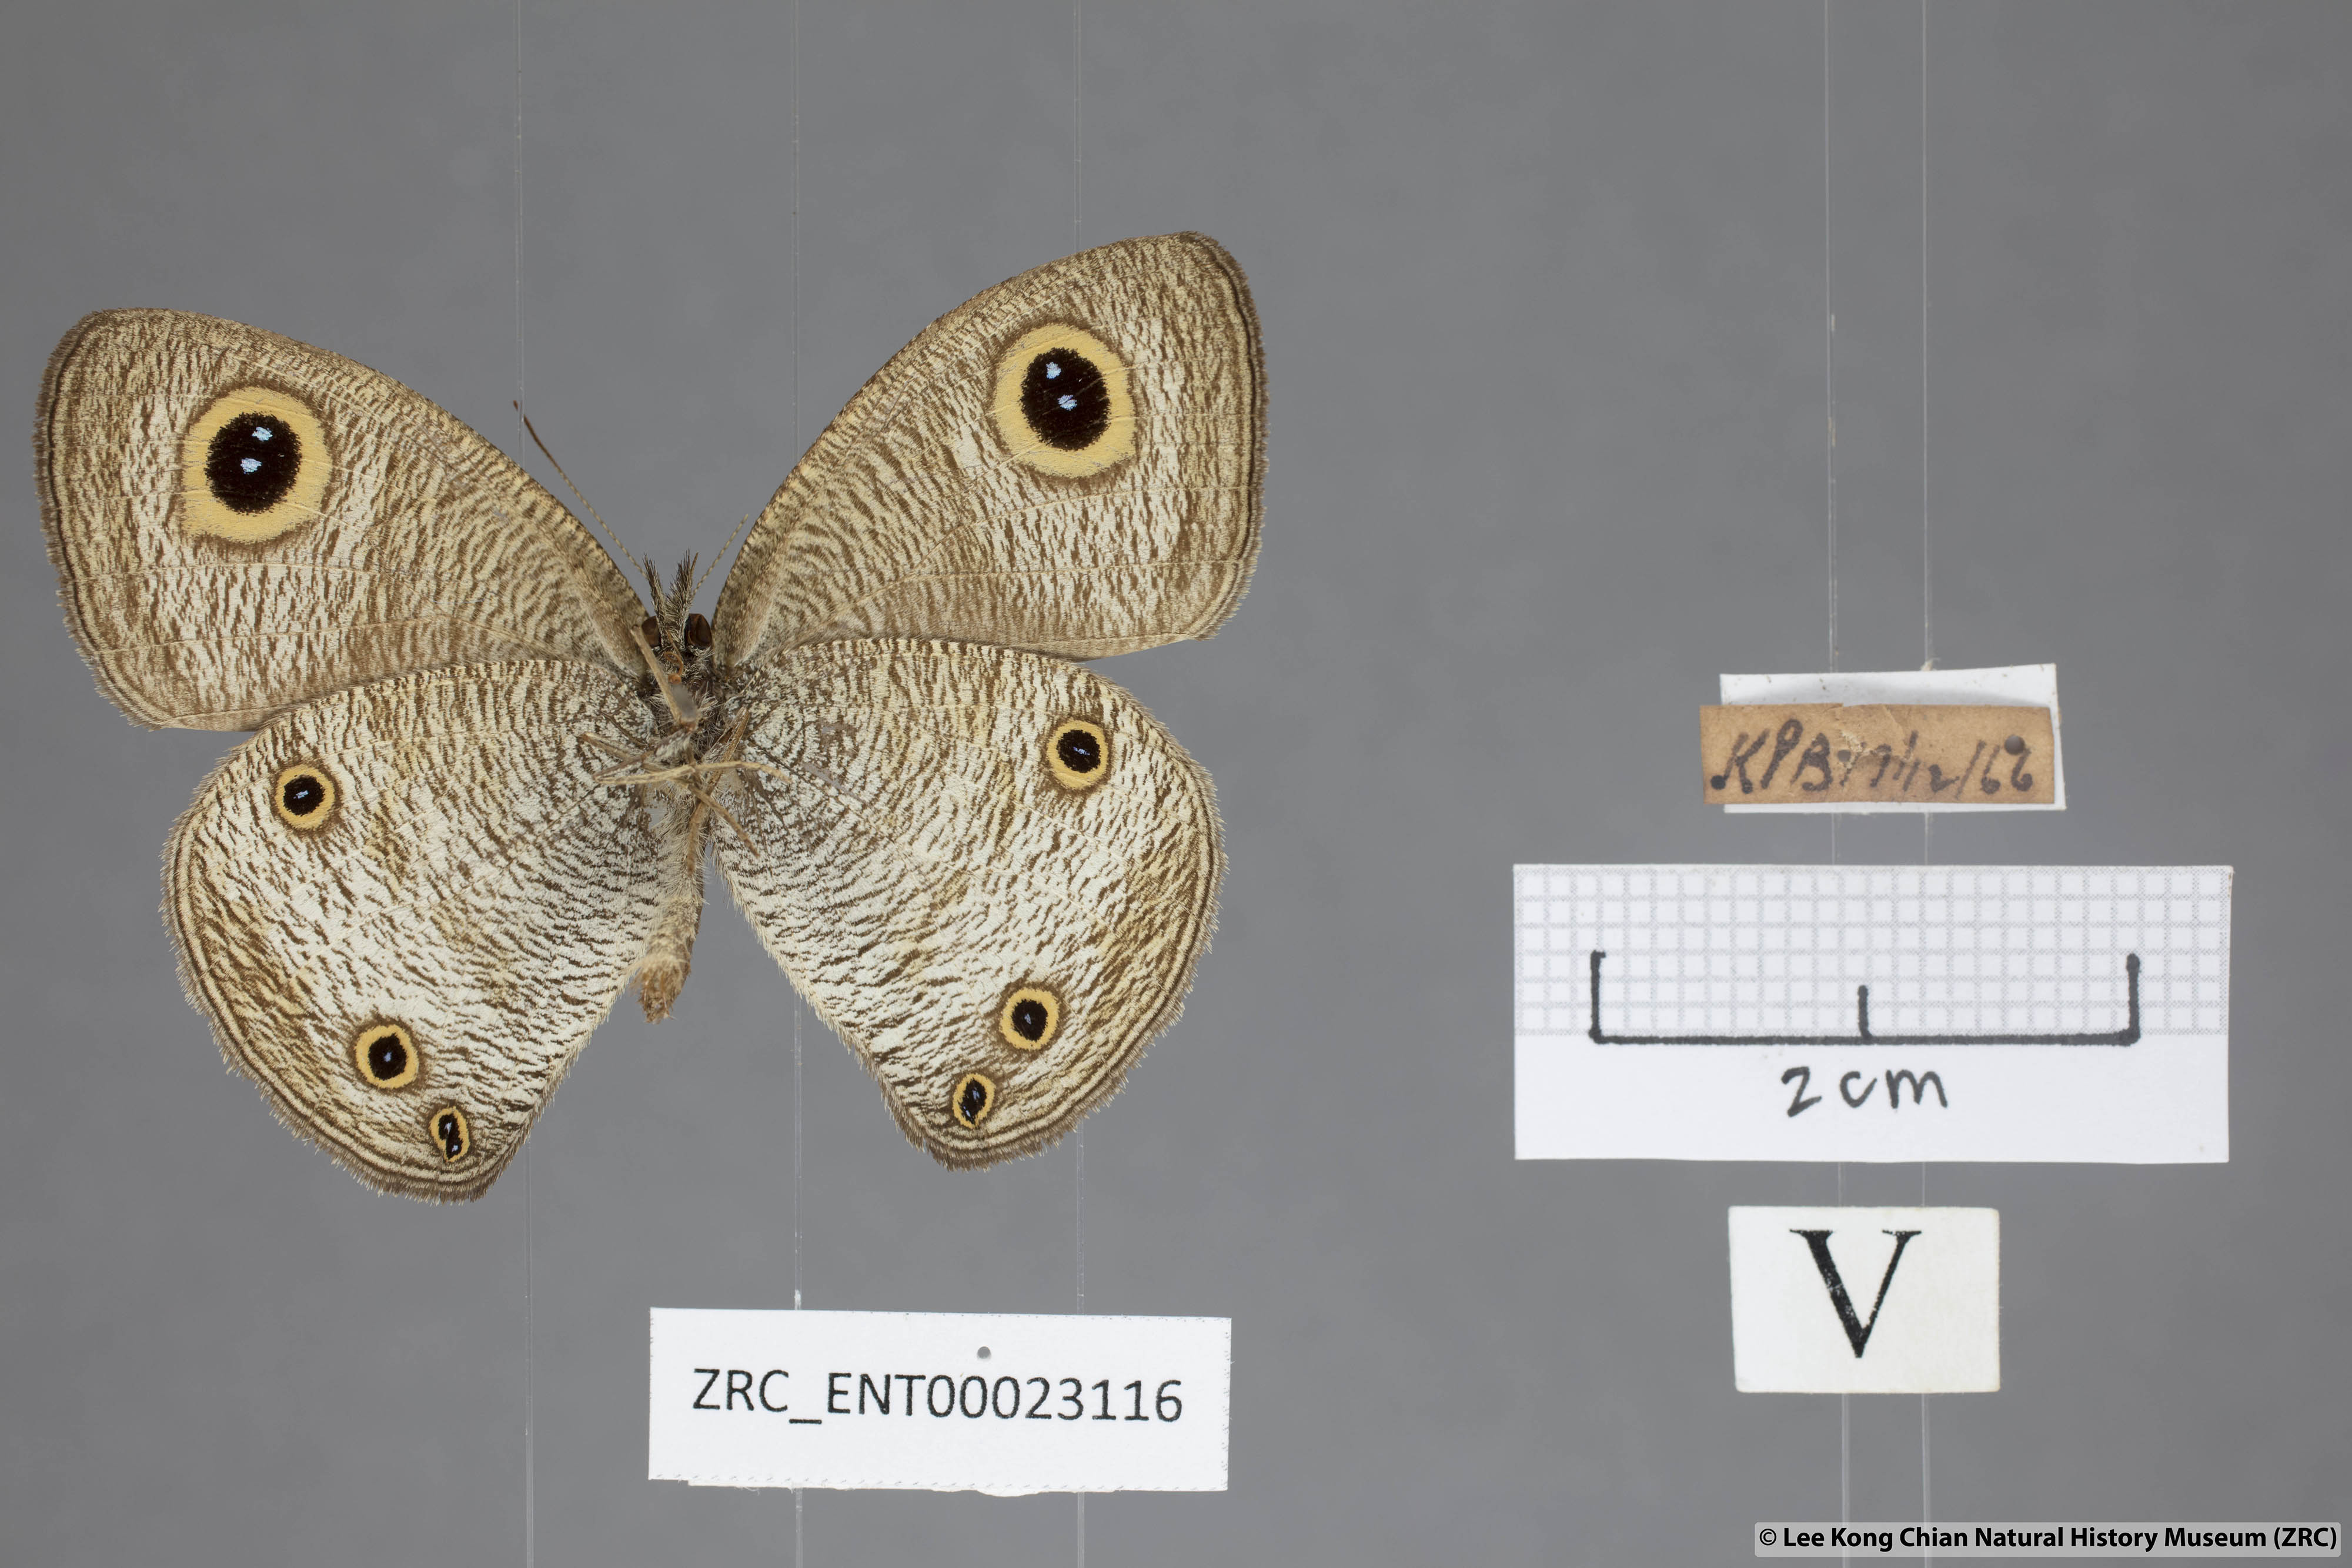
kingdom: Animalia
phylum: Arthropoda
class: Insecta
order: Lepidoptera
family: Nymphalidae
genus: Ypthima
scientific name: Ypthima pandocus
